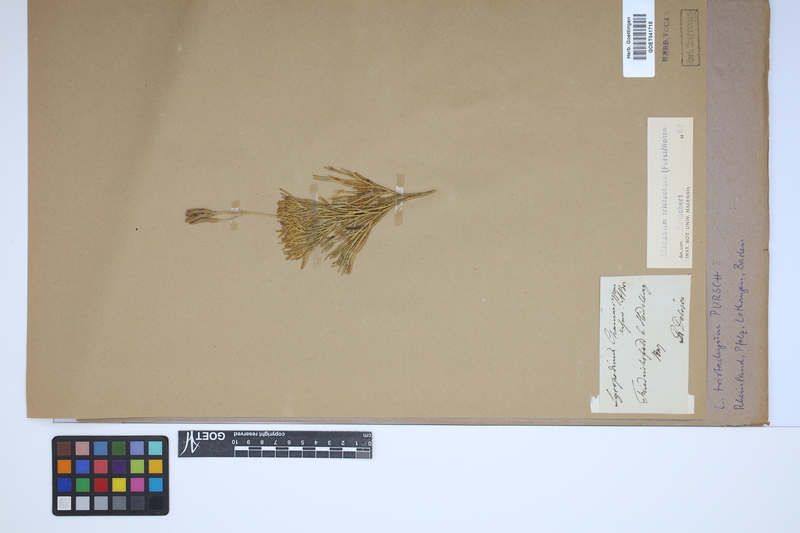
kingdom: Plantae
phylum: Tracheophyta
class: Lycopodiopsida
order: Lycopodiales
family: Lycopodiaceae
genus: Diphasiastrum
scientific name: Diphasiastrum tristachyum
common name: Blue ground-cedar
